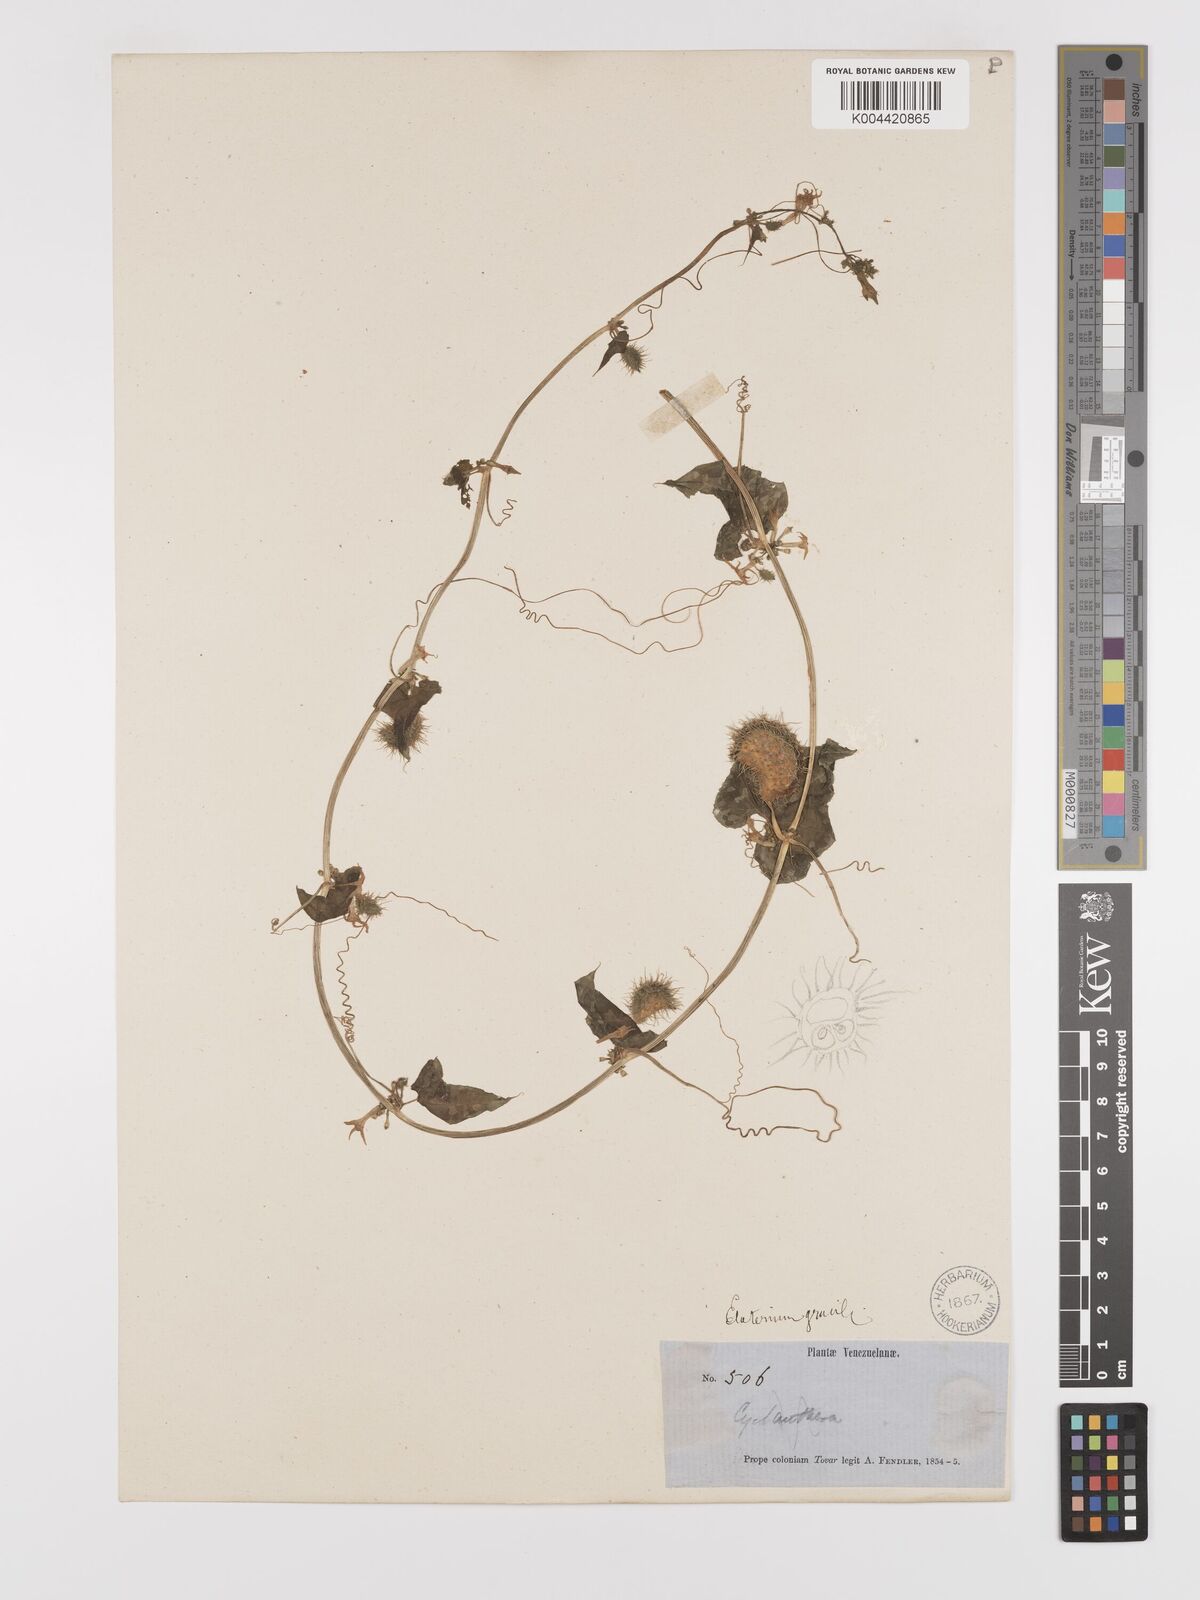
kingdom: Plantae
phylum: Tracheophyta
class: Magnoliopsida
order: Cucurbitales
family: Cucurbitaceae
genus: Cyclanthera
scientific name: Cyclanthera carthagenensis
